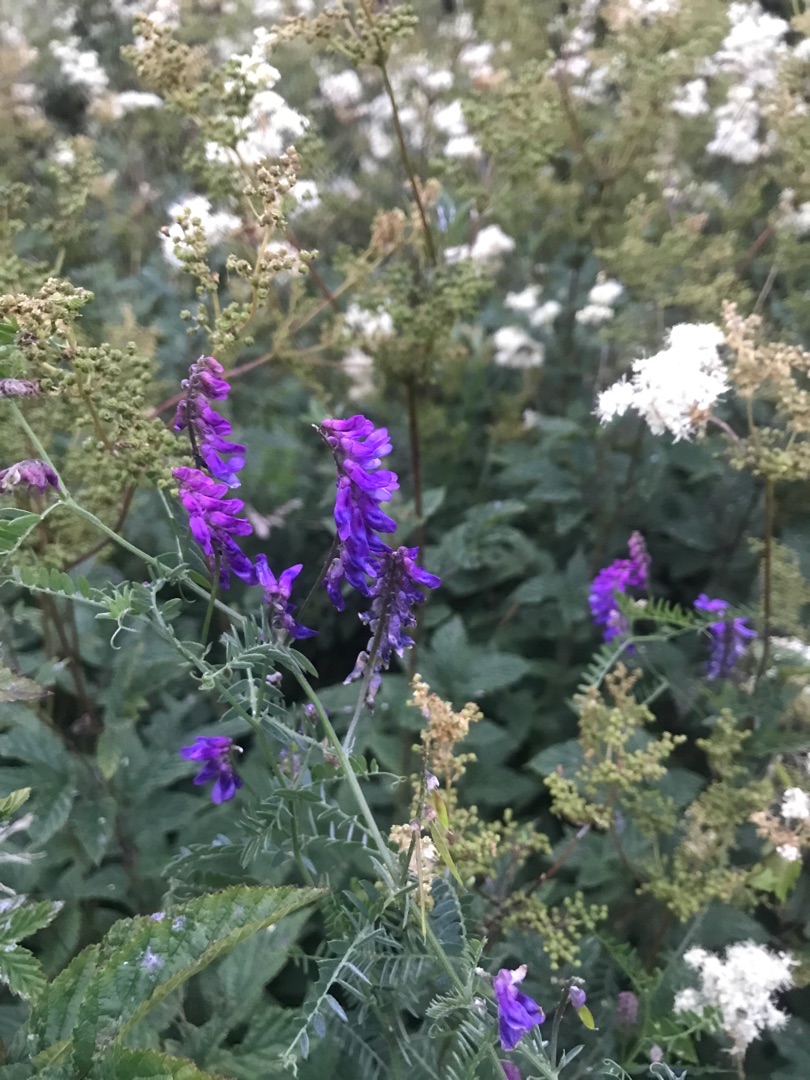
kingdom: Plantae
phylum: Tracheophyta
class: Magnoliopsida
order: Fabales
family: Fabaceae
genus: Vicia
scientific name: Vicia cracca
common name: Muse-vikke
